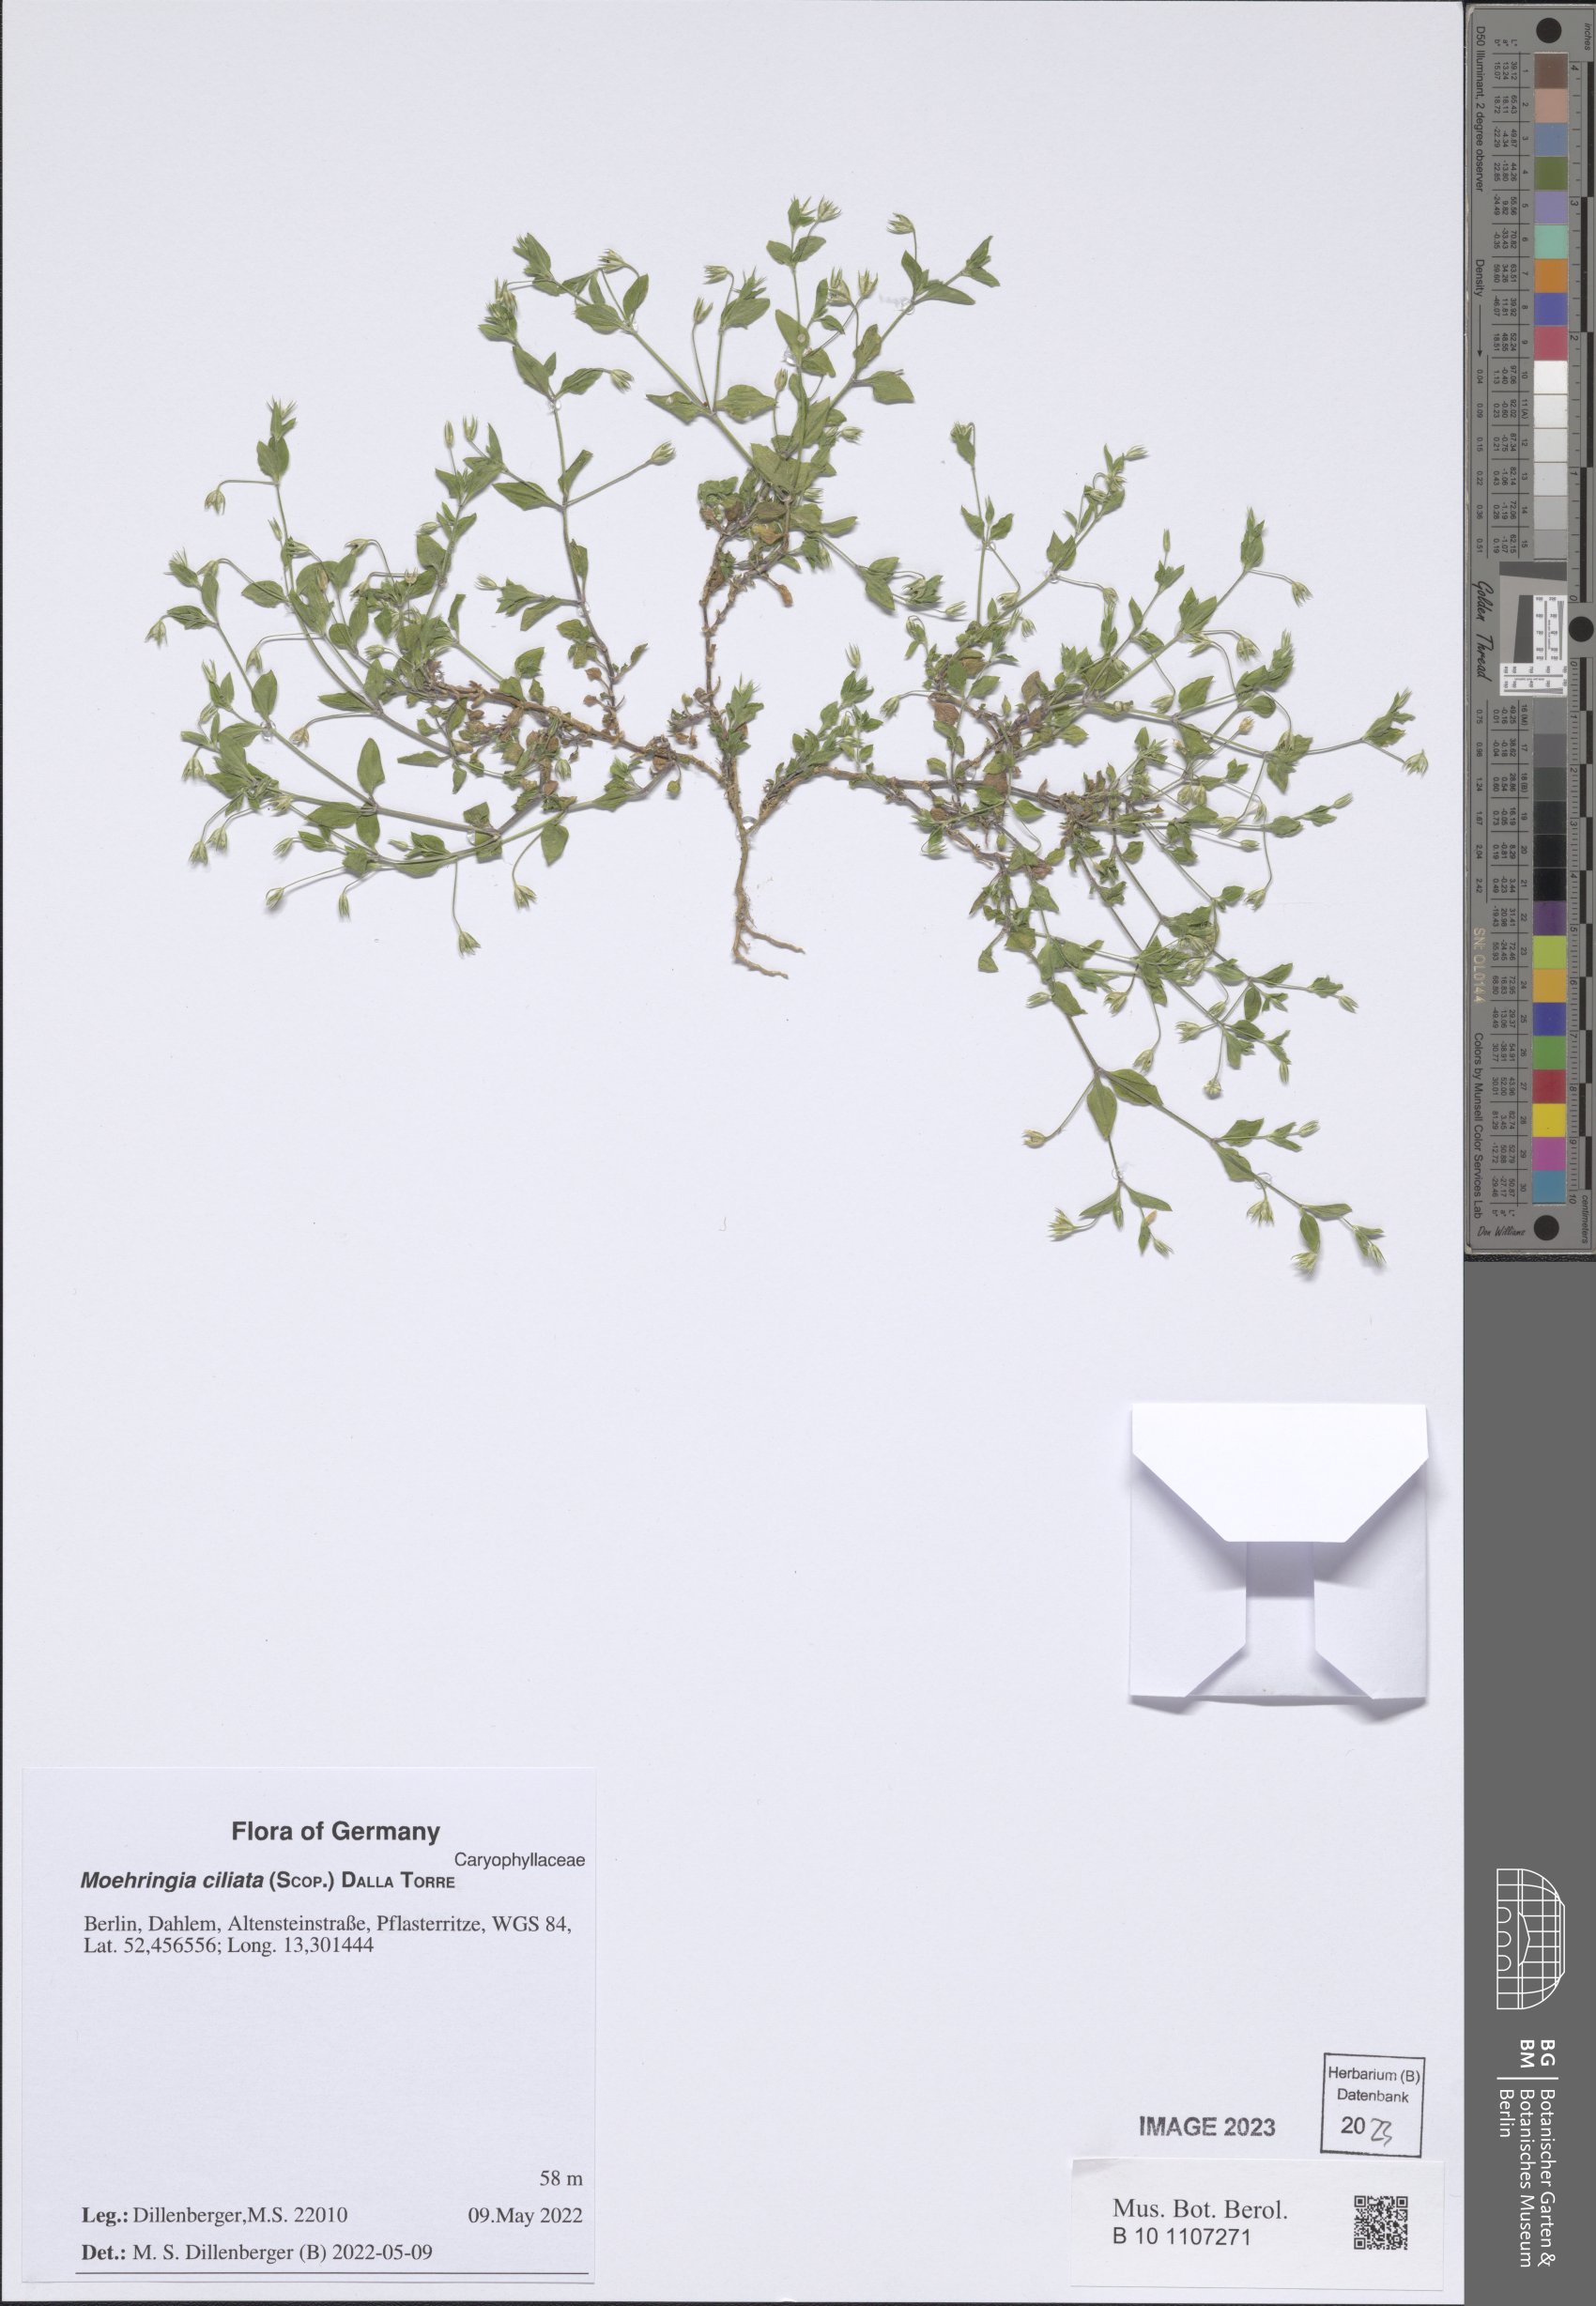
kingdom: Plantae
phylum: Tracheophyta
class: Magnoliopsida
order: Caryophyllales
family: Caryophyllaceae
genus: Moehringia
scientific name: Moehringia ciliata
